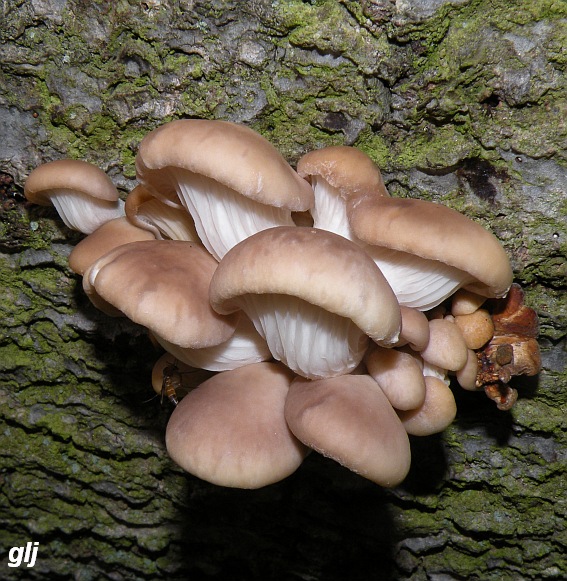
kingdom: Fungi
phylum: Basidiomycota
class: Agaricomycetes
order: Agaricales
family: Pleurotaceae
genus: Pleurotus
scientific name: Pleurotus ostreatus
